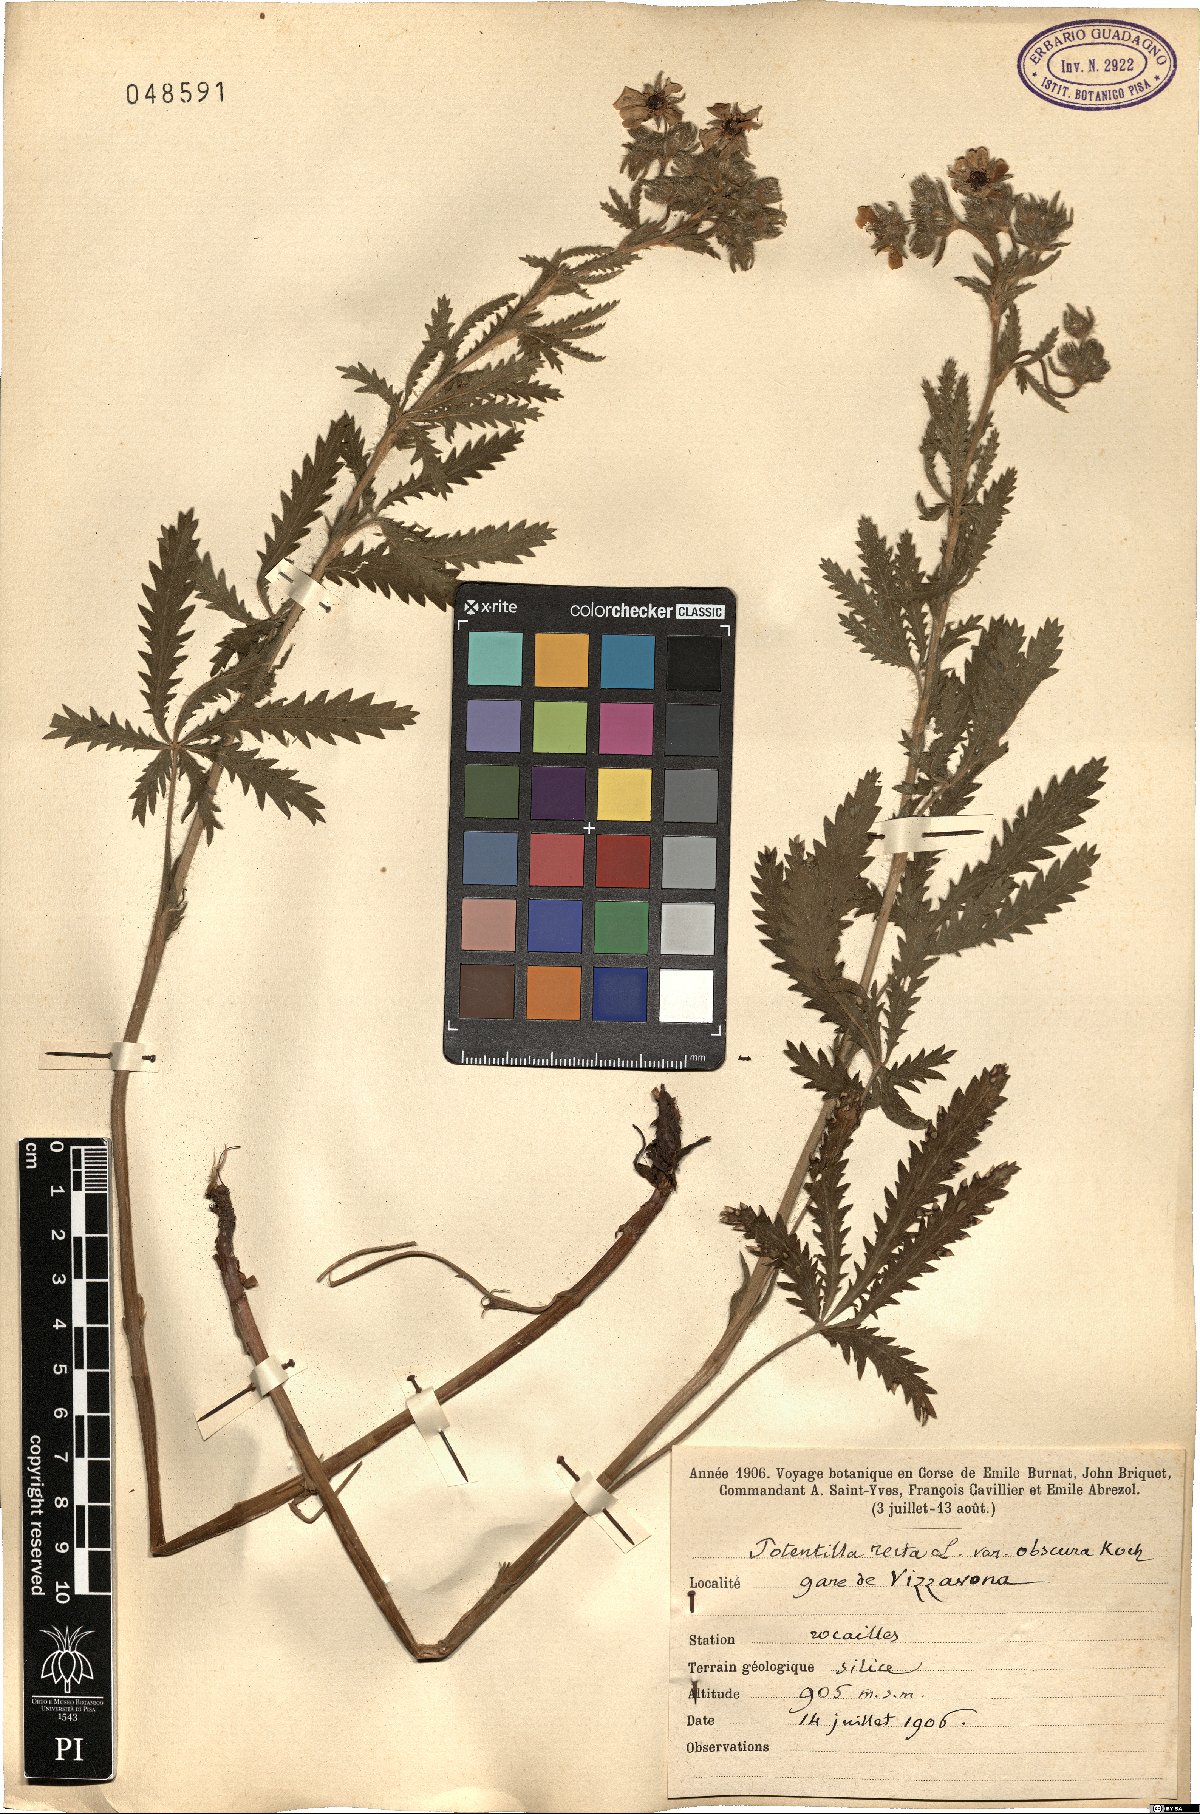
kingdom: Plantae
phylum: Tracheophyta
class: Magnoliopsida
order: Rosales
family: Rosaceae
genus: Potentilla
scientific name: Potentilla recta
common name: Sulphur cinquefoil
